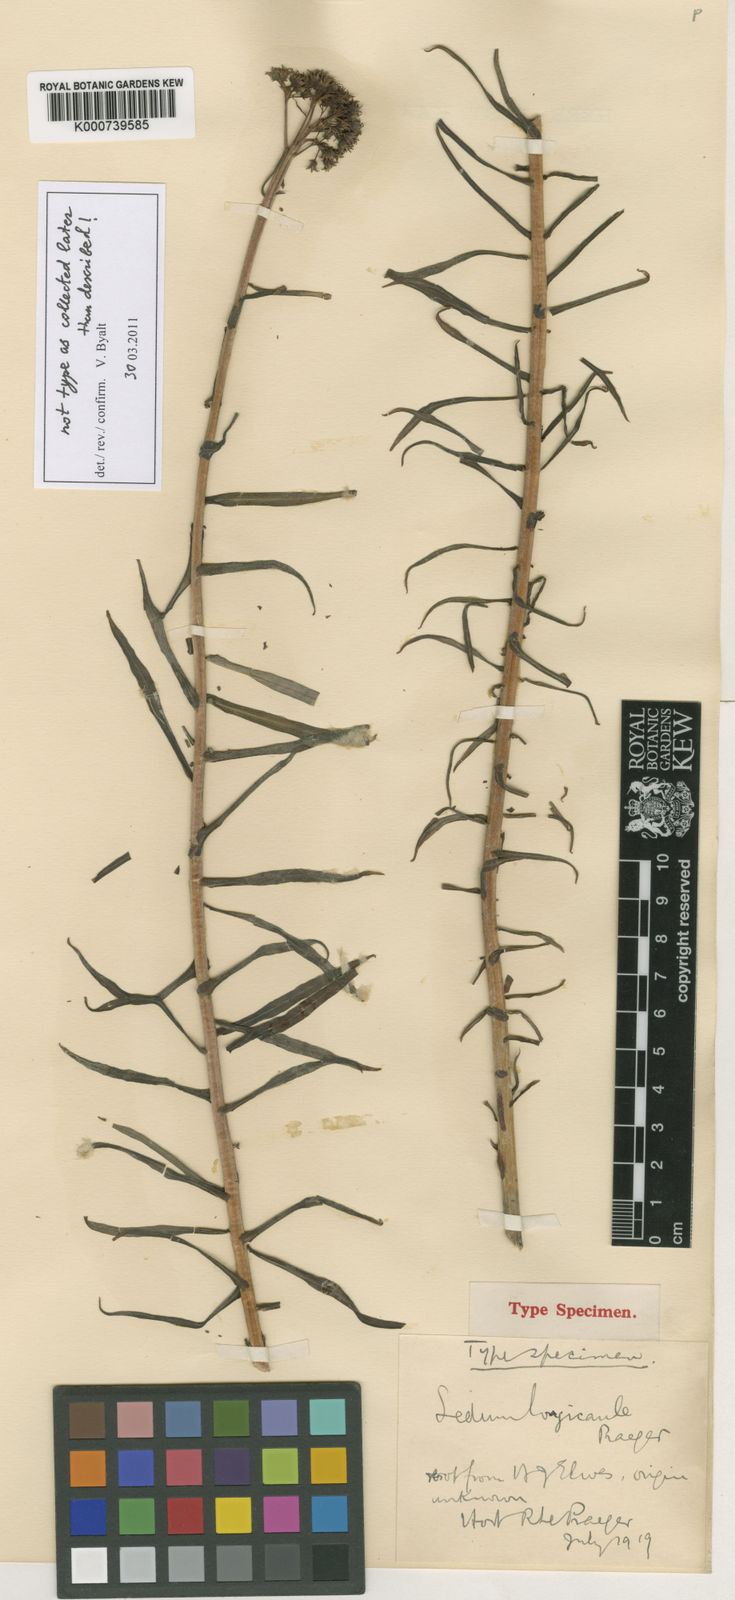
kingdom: Plantae
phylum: Tracheophyta
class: Magnoliopsida
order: Saxifragales
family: Crassulaceae
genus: Rhodiola
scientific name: Rhodiola kirilowii
